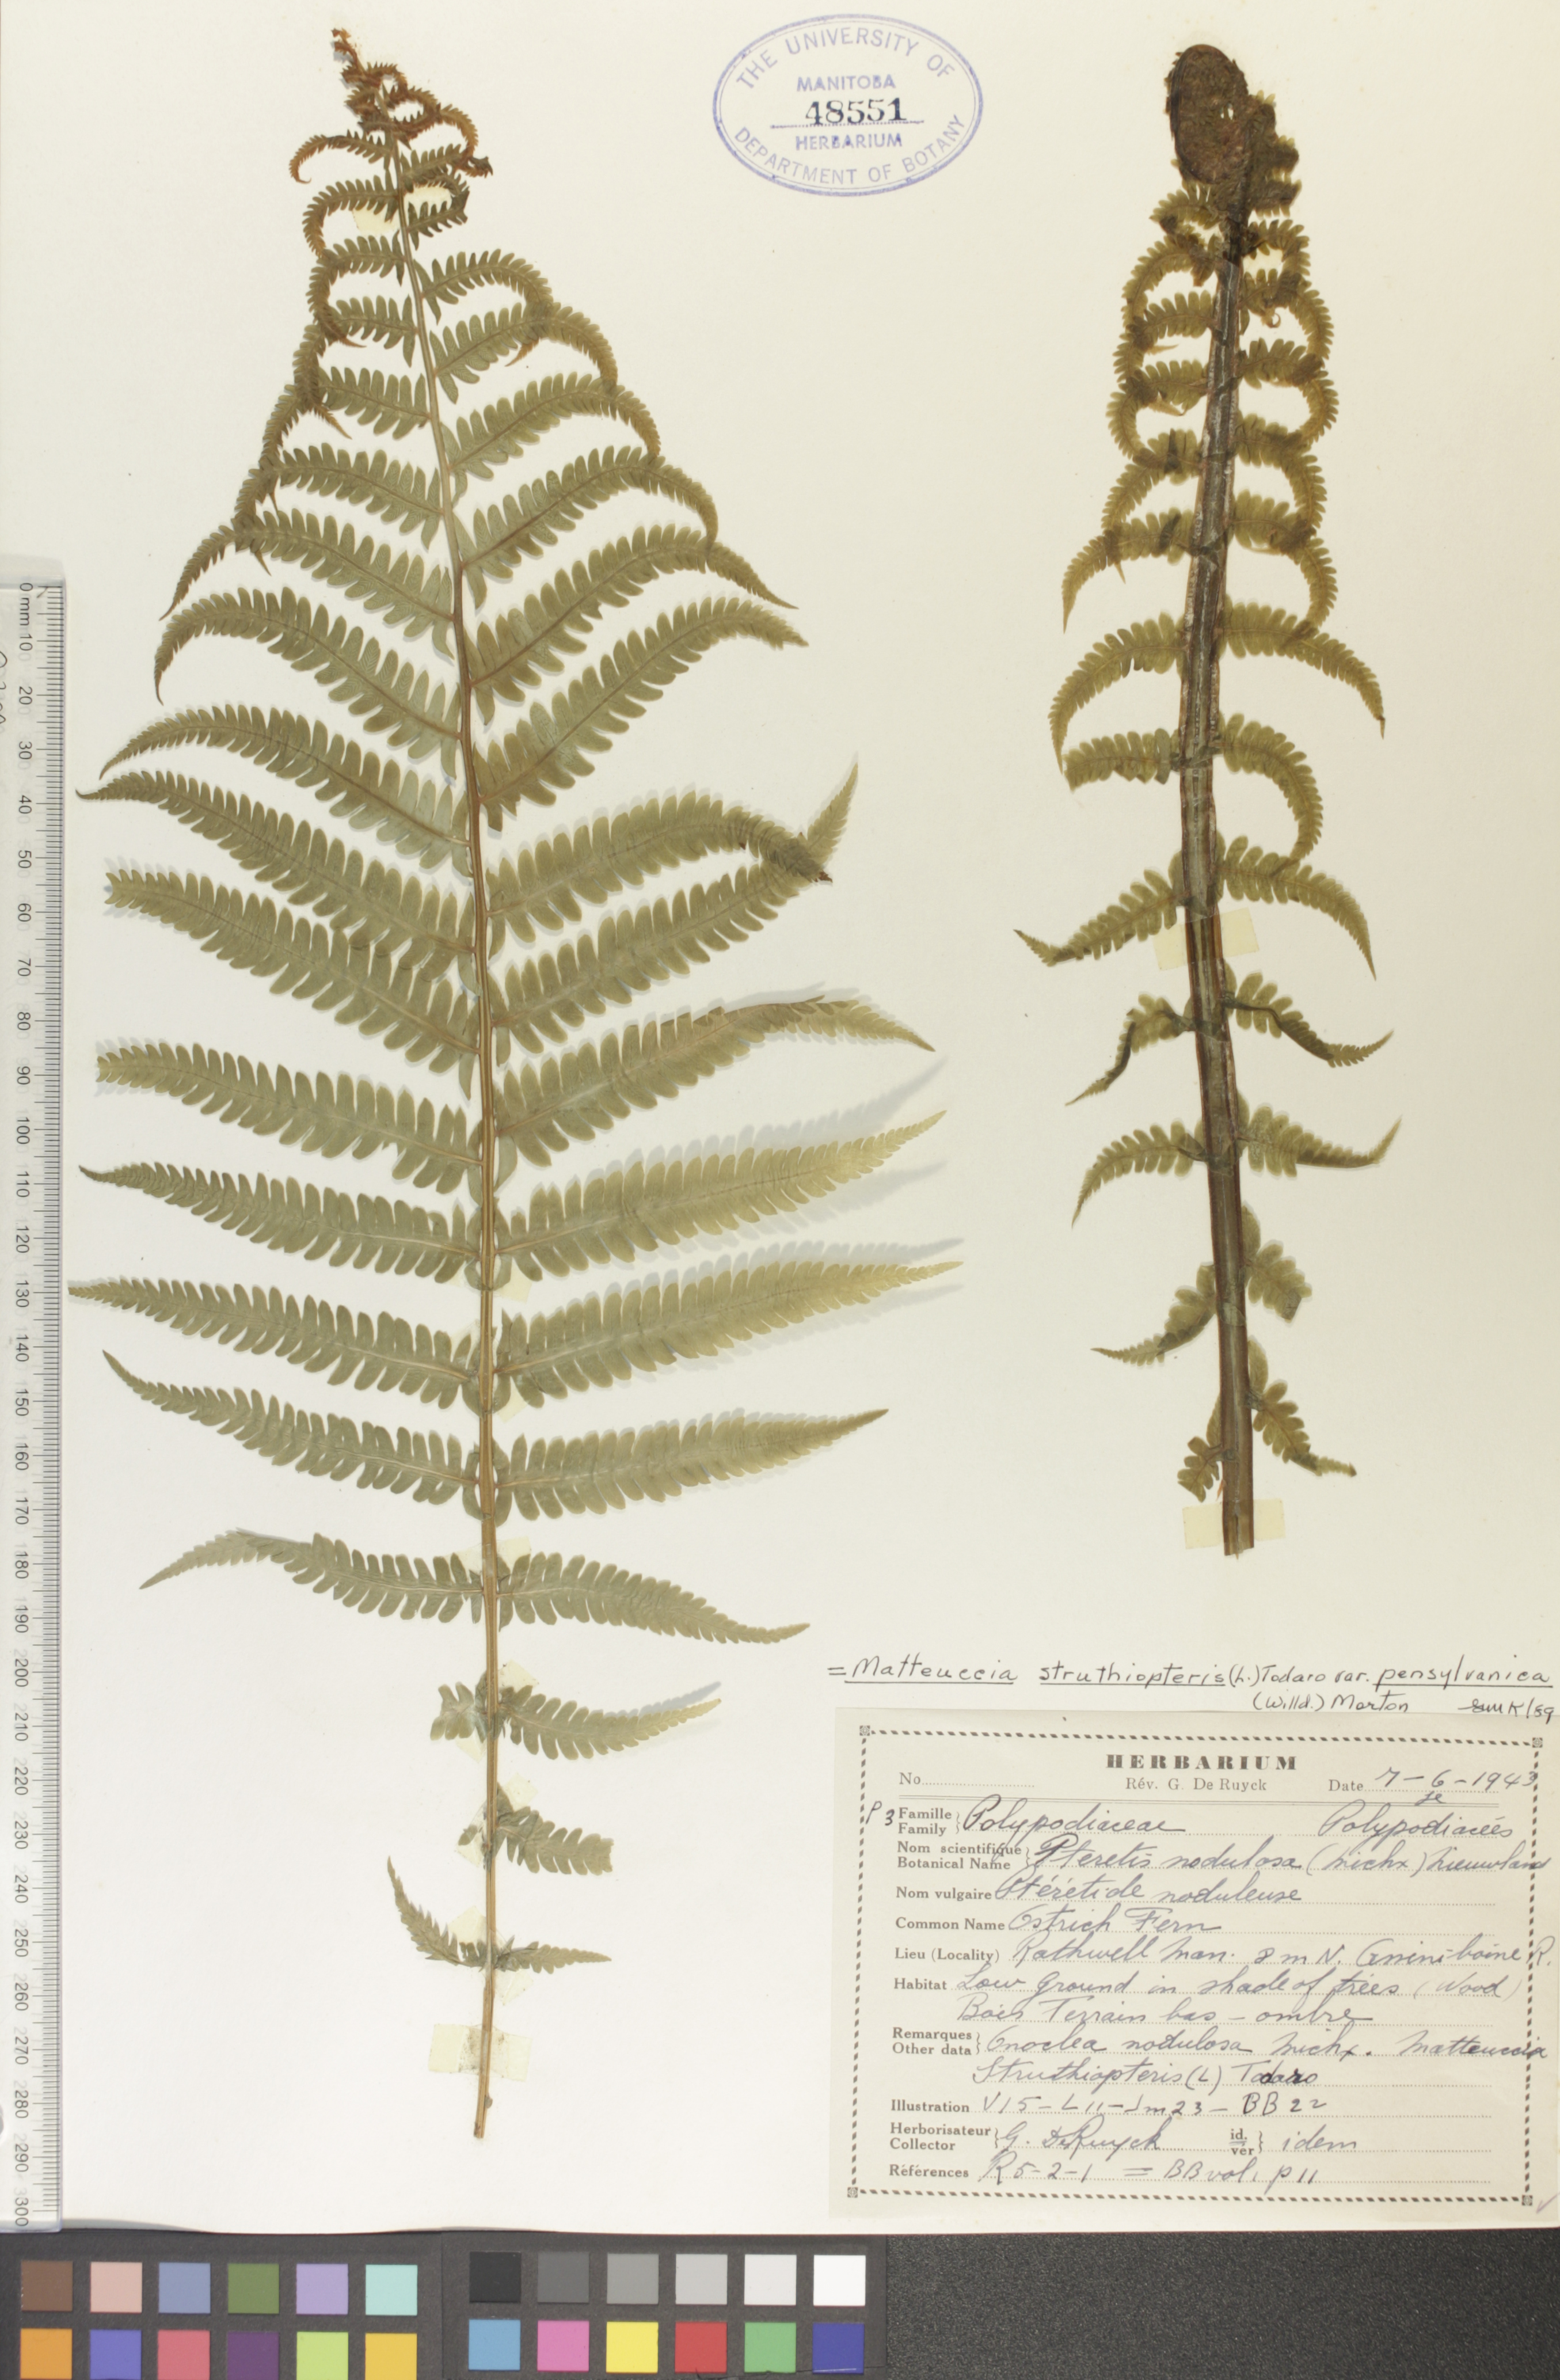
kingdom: Plantae
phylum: Tracheophyta
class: Polypodiopsida
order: Polypodiales
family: Onocleaceae
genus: Matteuccia
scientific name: Matteuccia pensylvanica
